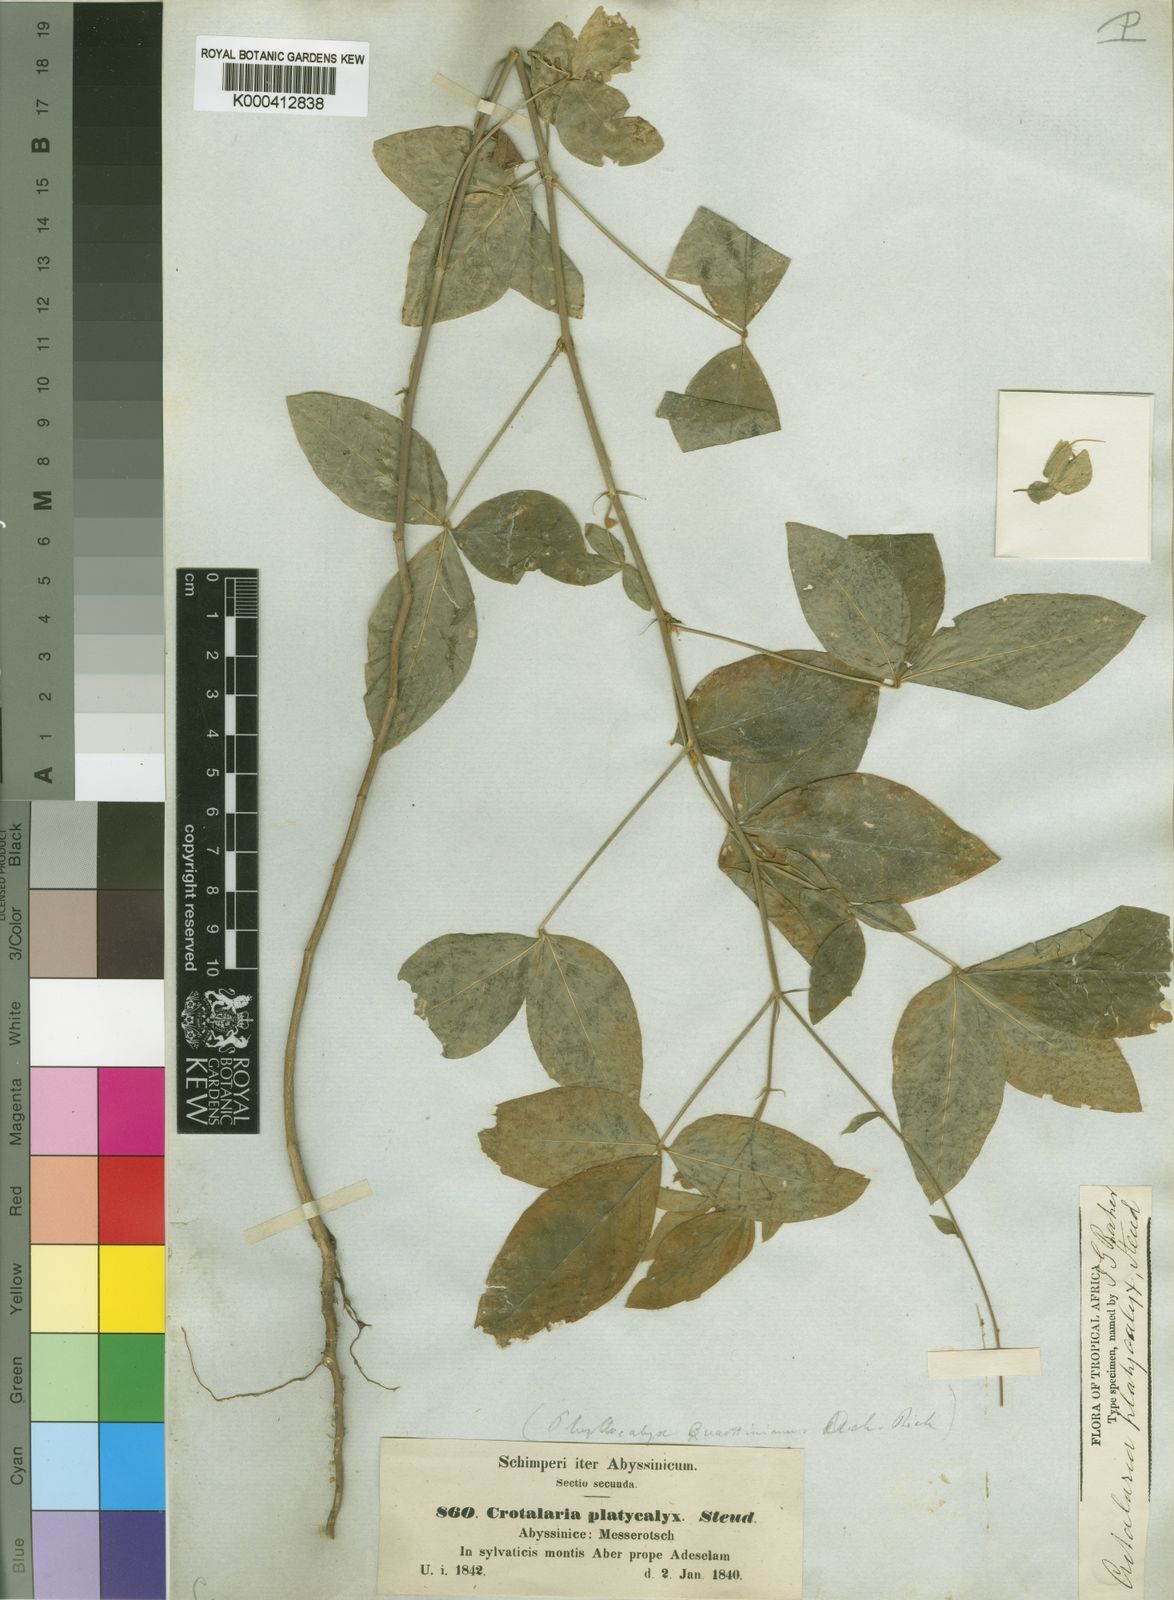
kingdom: Plantae
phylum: Tracheophyta
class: Magnoliopsida
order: Fabales
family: Fabaceae
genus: Crotalaria
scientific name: Crotalaria quartiniana
